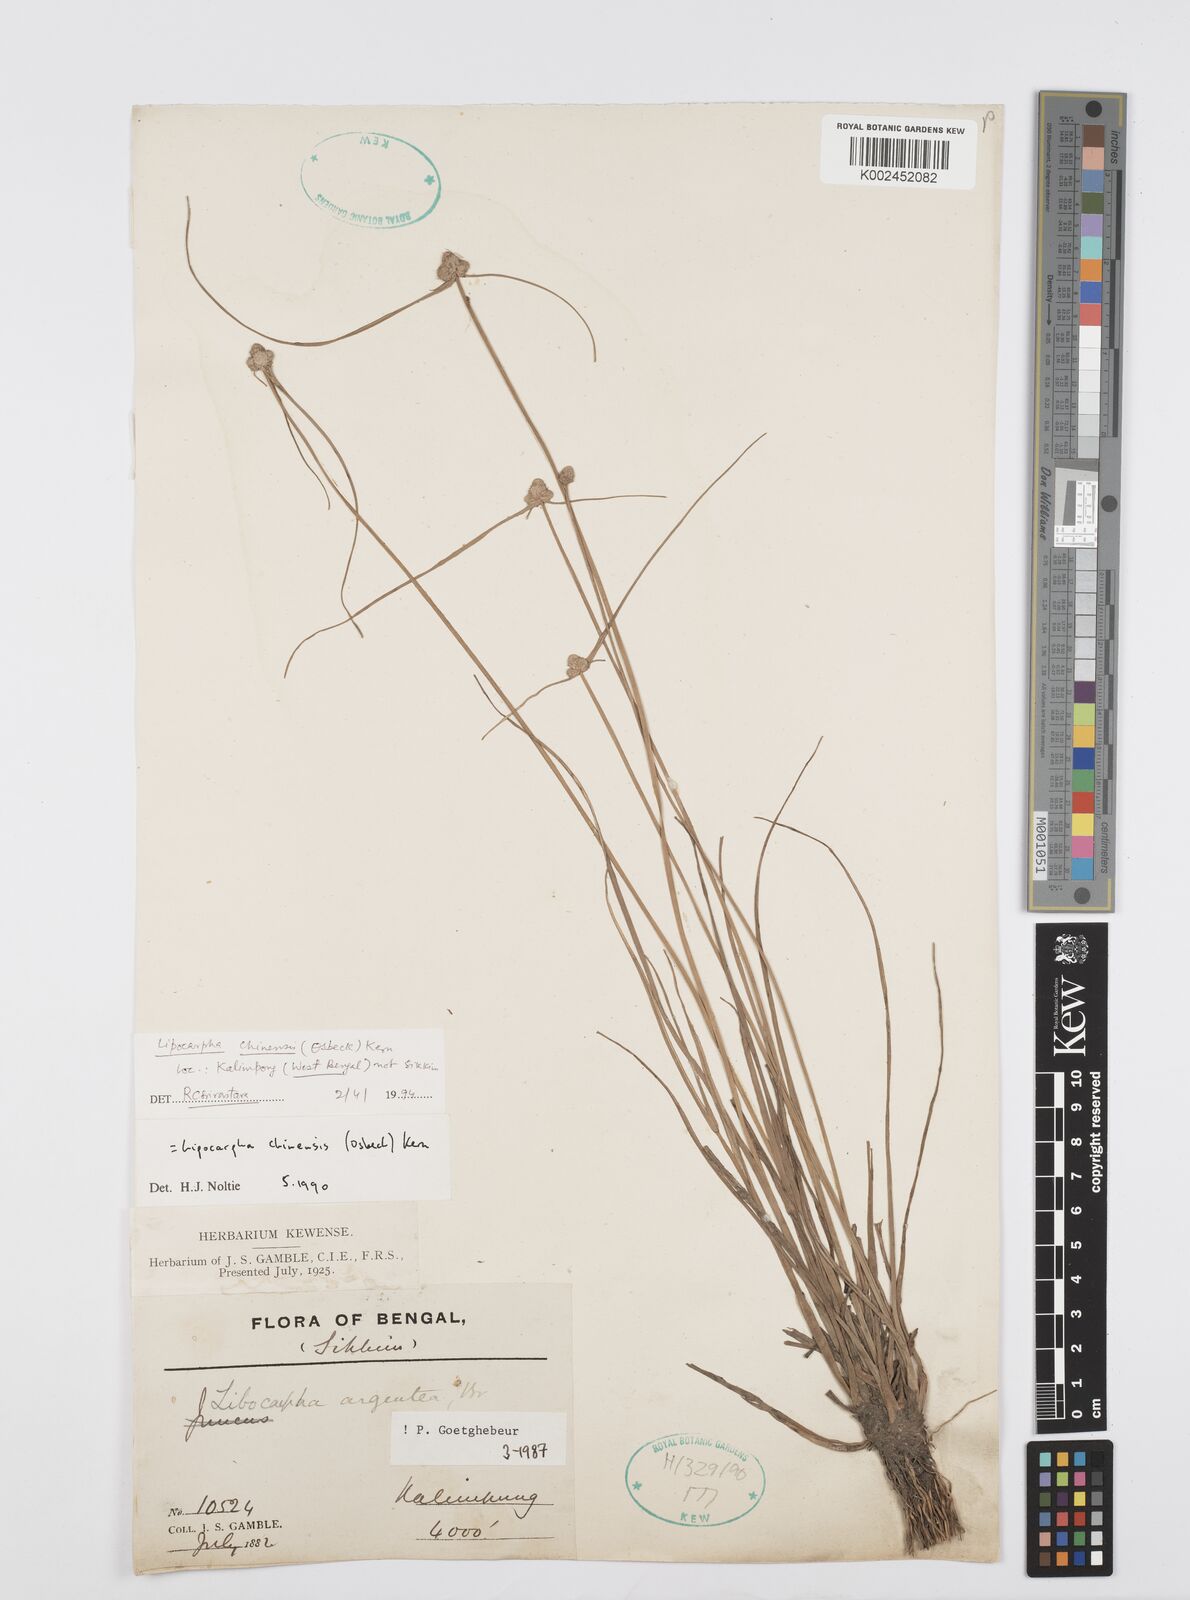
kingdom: Plantae
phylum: Tracheophyta
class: Liliopsida
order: Poales
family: Cyperaceae
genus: Cyperus
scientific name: Cyperus
